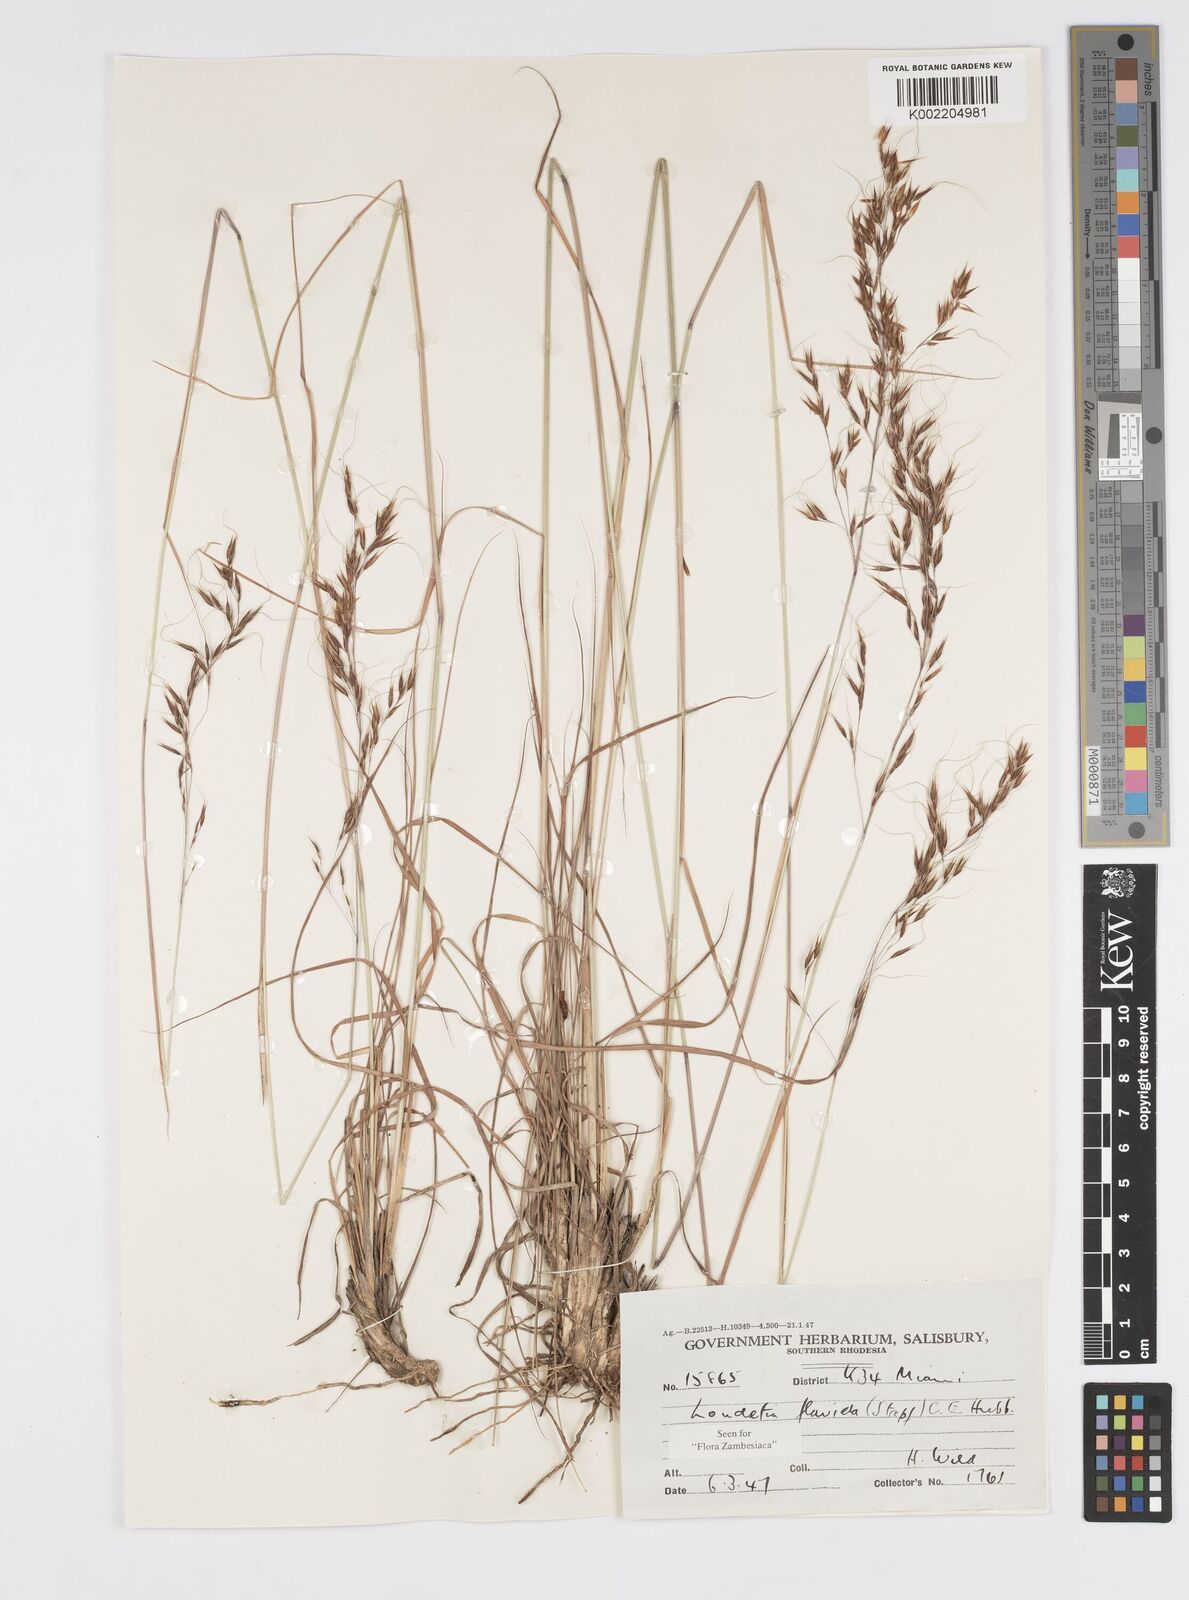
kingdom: Plantae
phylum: Tracheophyta
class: Liliopsida
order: Poales
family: Poaceae
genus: Loudetia
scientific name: Loudetia flavida
